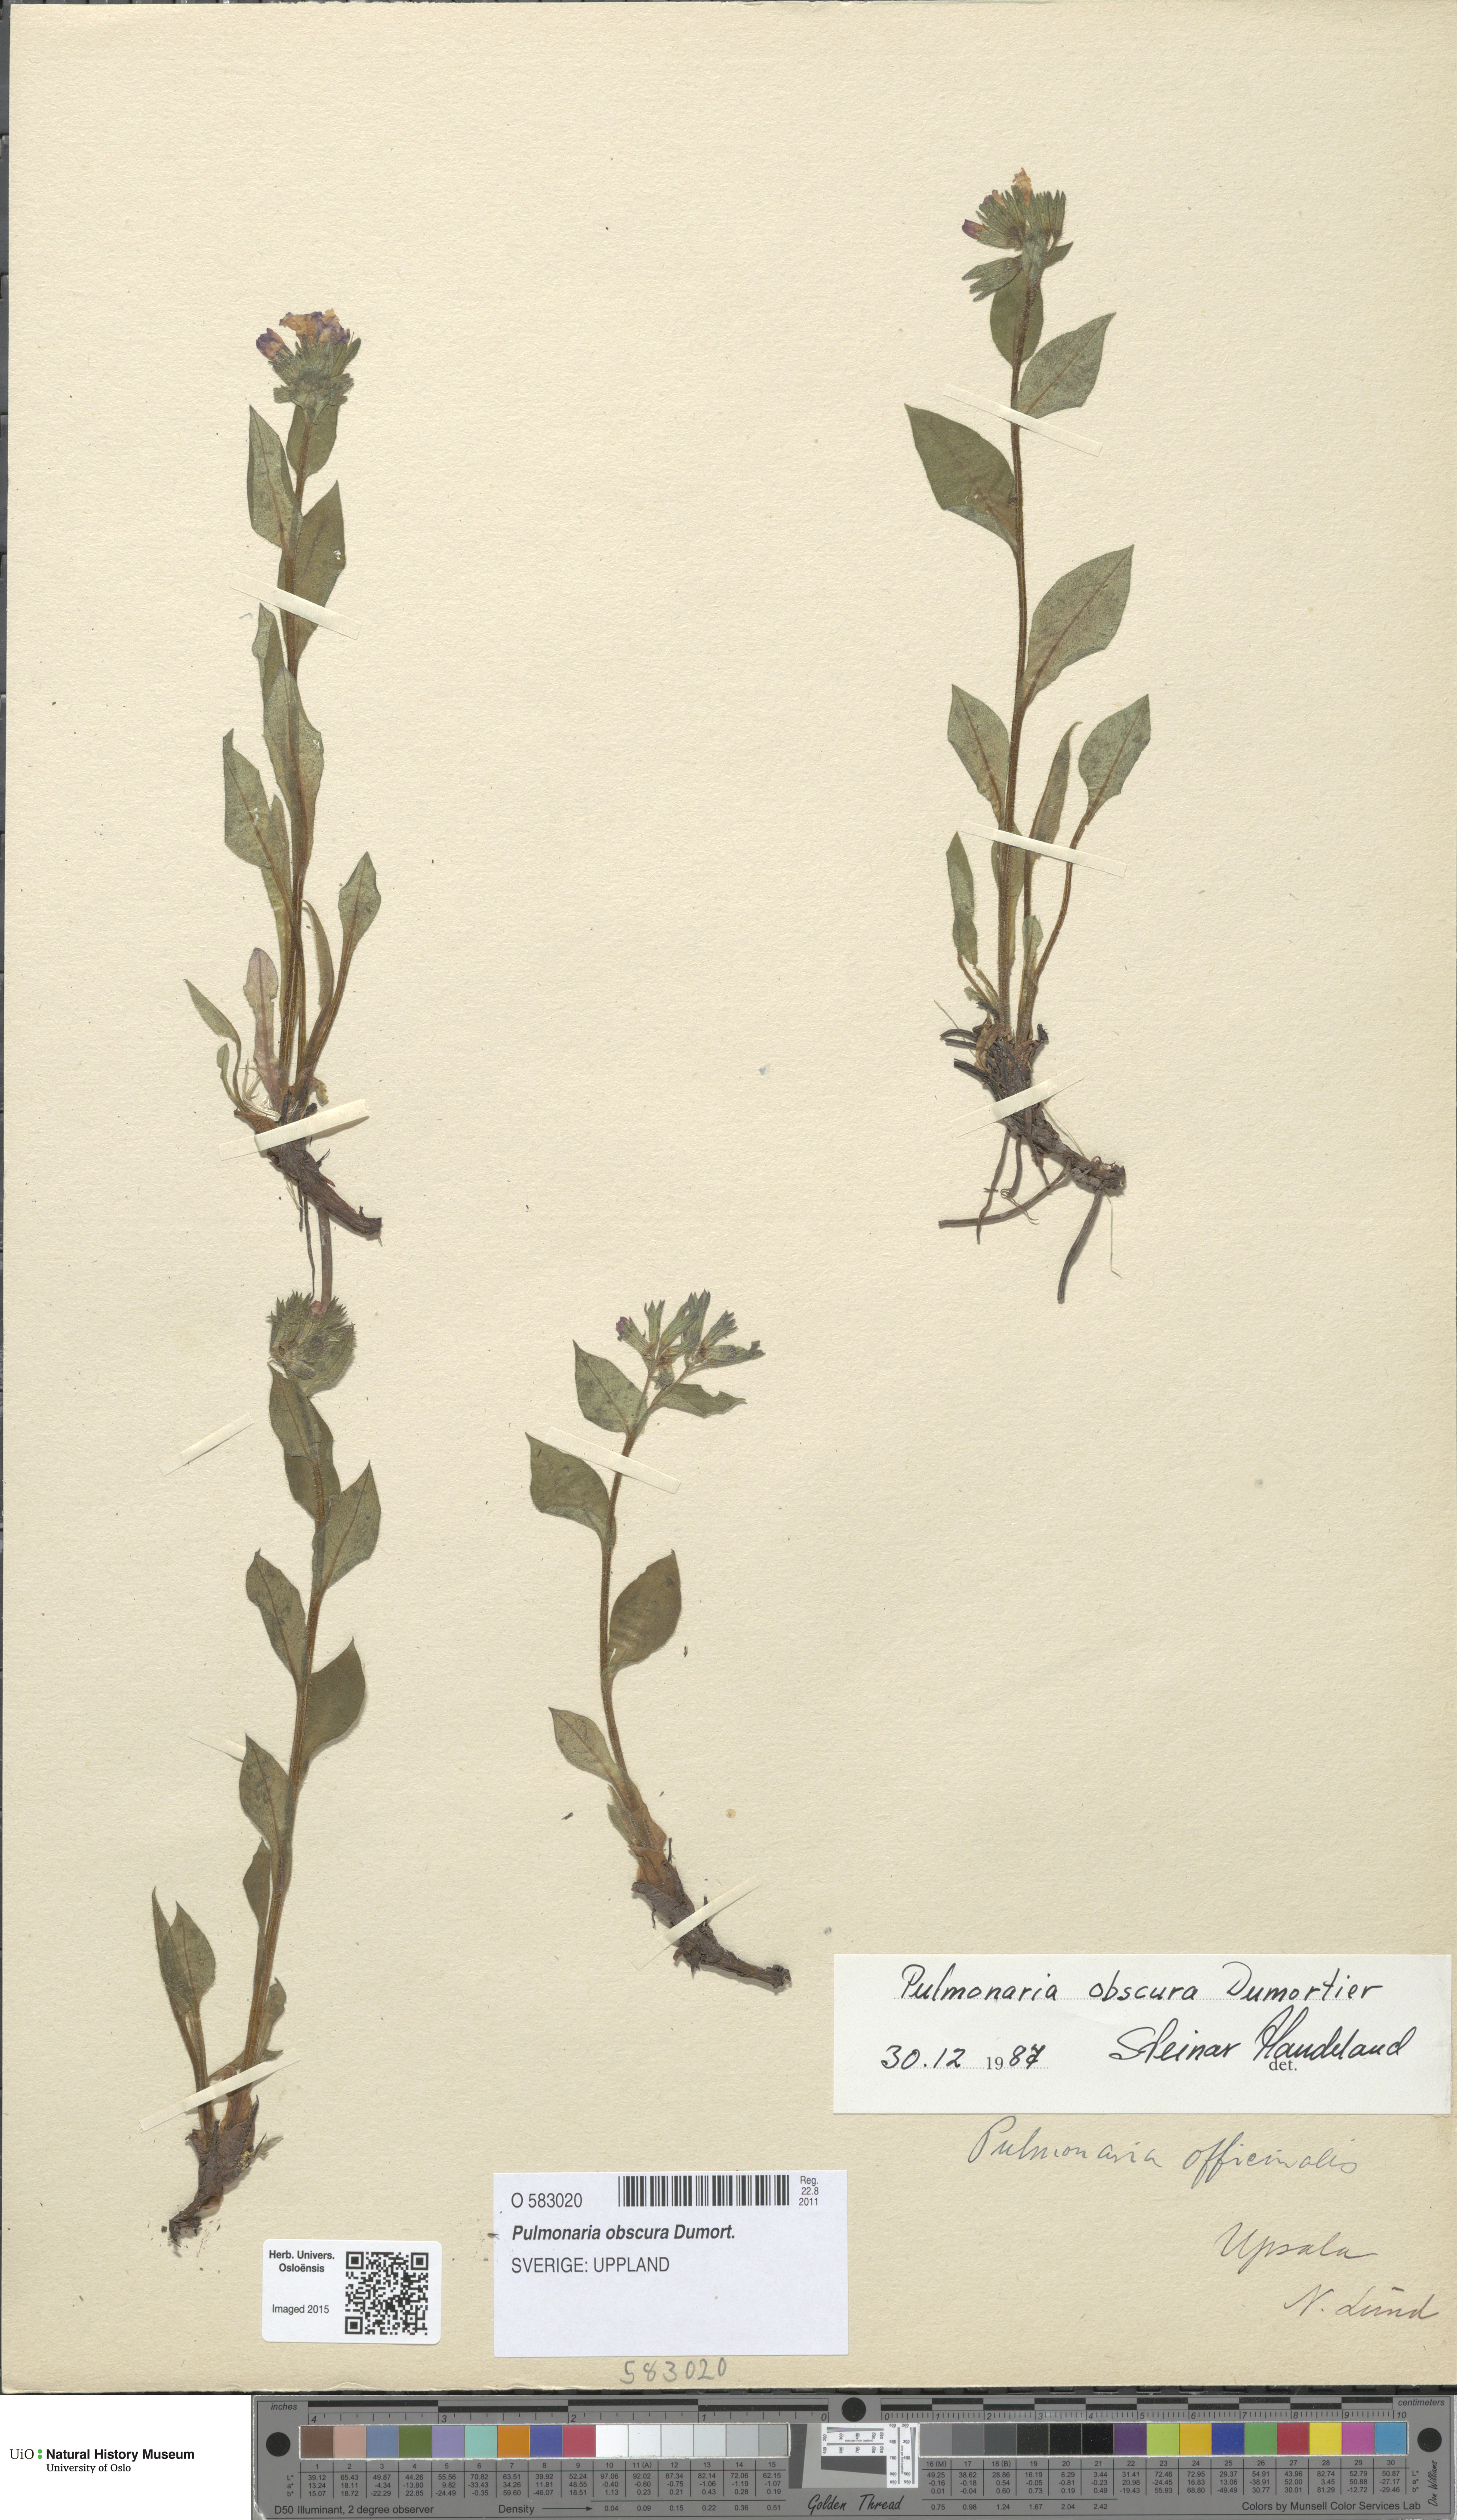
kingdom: Plantae
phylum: Tracheophyta
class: Magnoliopsida
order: Boraginales
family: Boraginaceae
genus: Pulmonaria
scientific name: Pulmonaria obscura
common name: Suffolk lungwort
